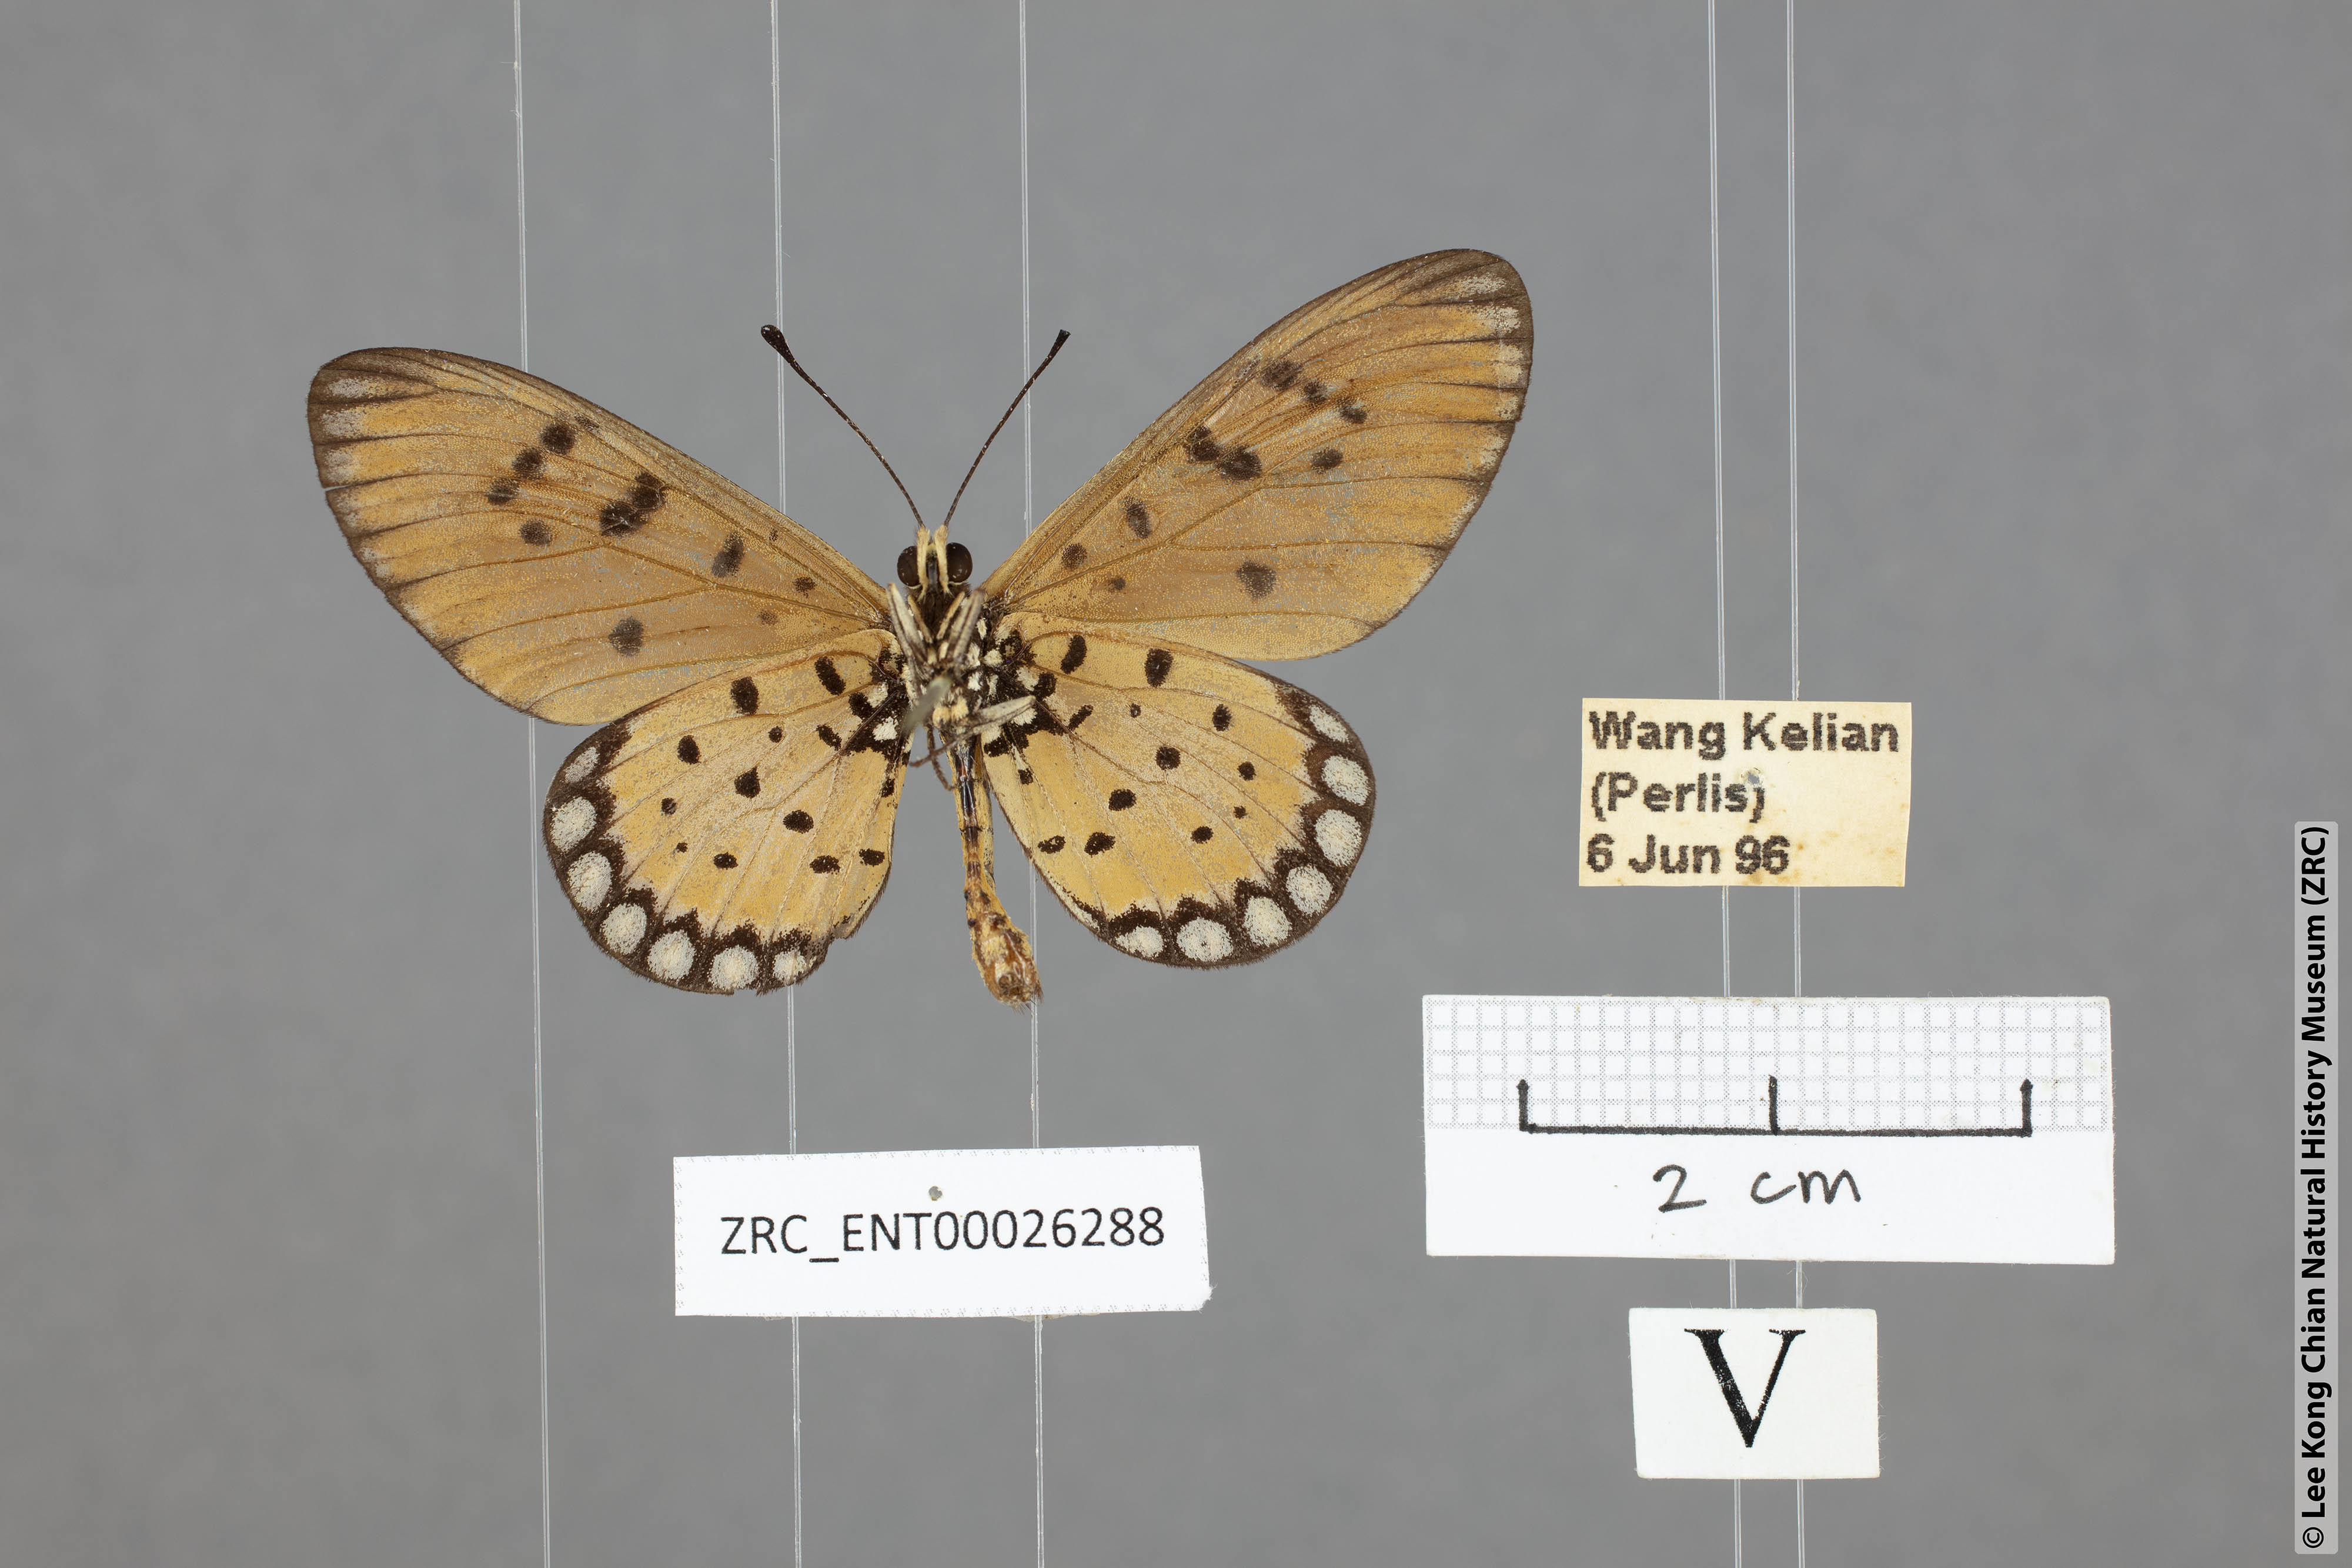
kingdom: Animalia
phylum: Arthropoda
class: Insecta
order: Lepidoptera
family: Nymphalidae
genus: Acraea
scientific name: Acraea violae
